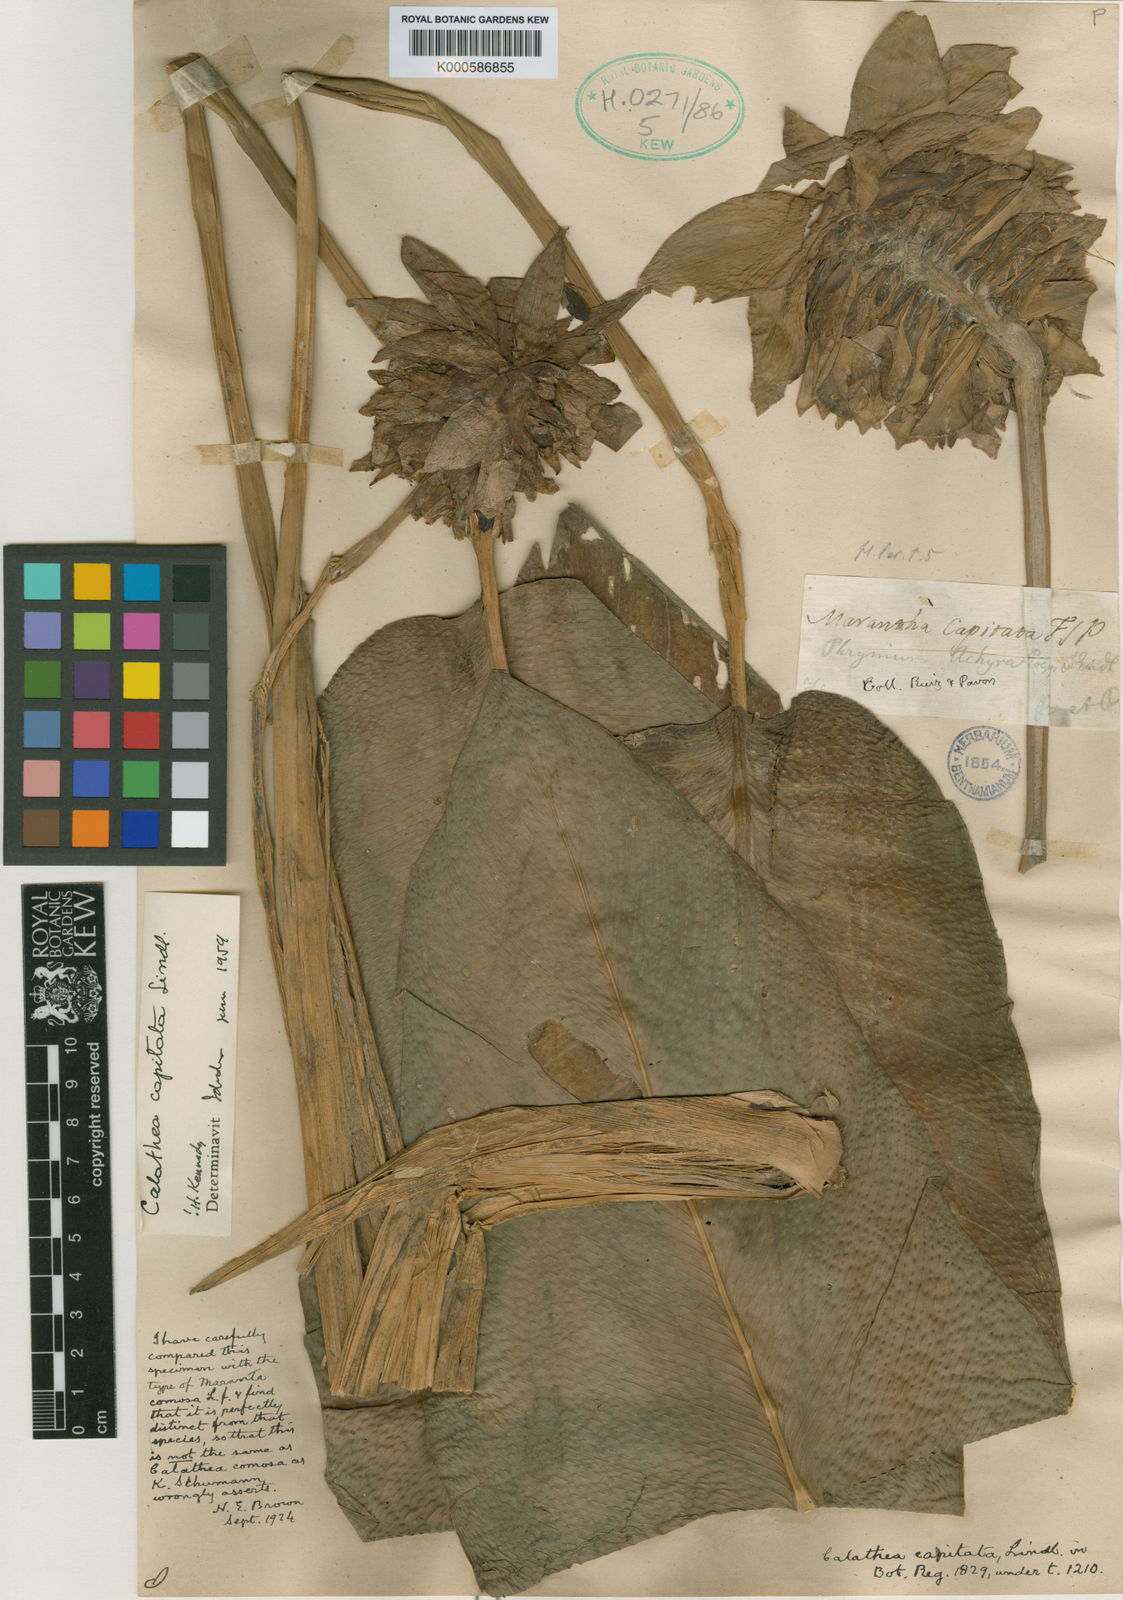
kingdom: Plantae
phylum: Tracheophyta
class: Liliopsida
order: Zingiberales
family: Marantaceae
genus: Goeppertia
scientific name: Goeppertia capitata
